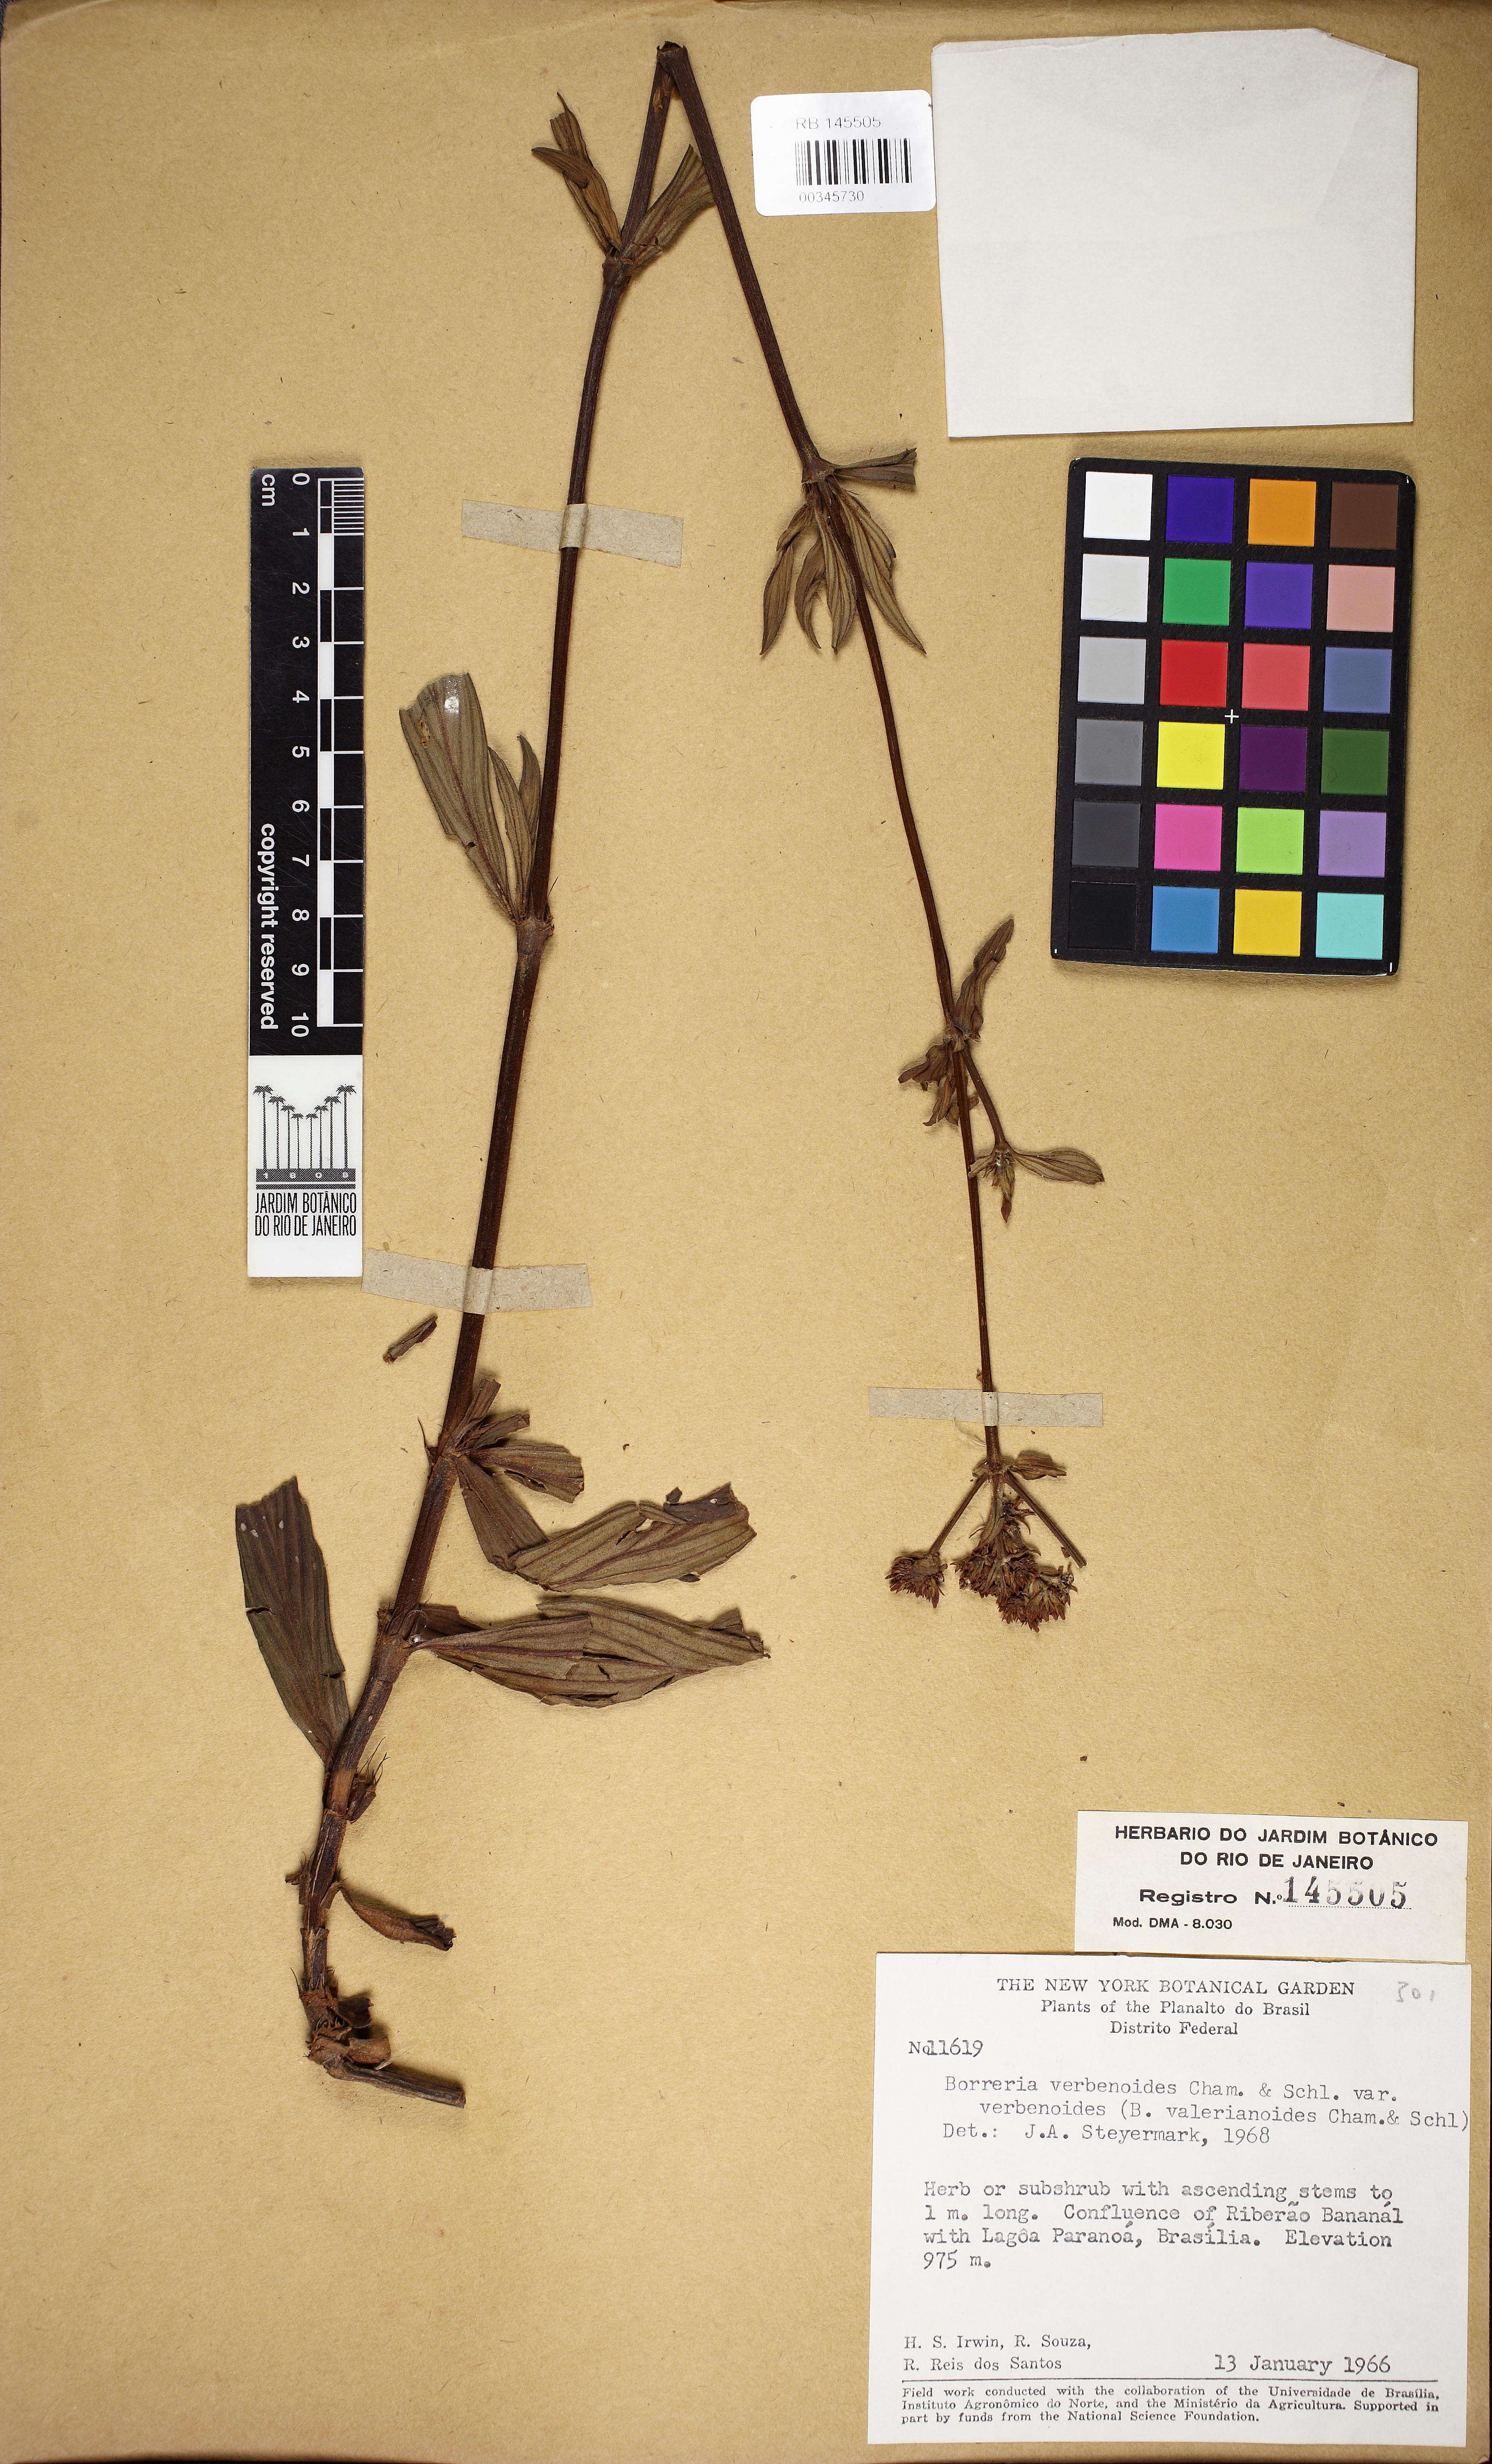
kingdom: Plantae
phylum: Tracheophyta
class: Magnoliopsida
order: Gentianales
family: Rubiaceae
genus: Galianthe
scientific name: Galianthe lanceifolia
